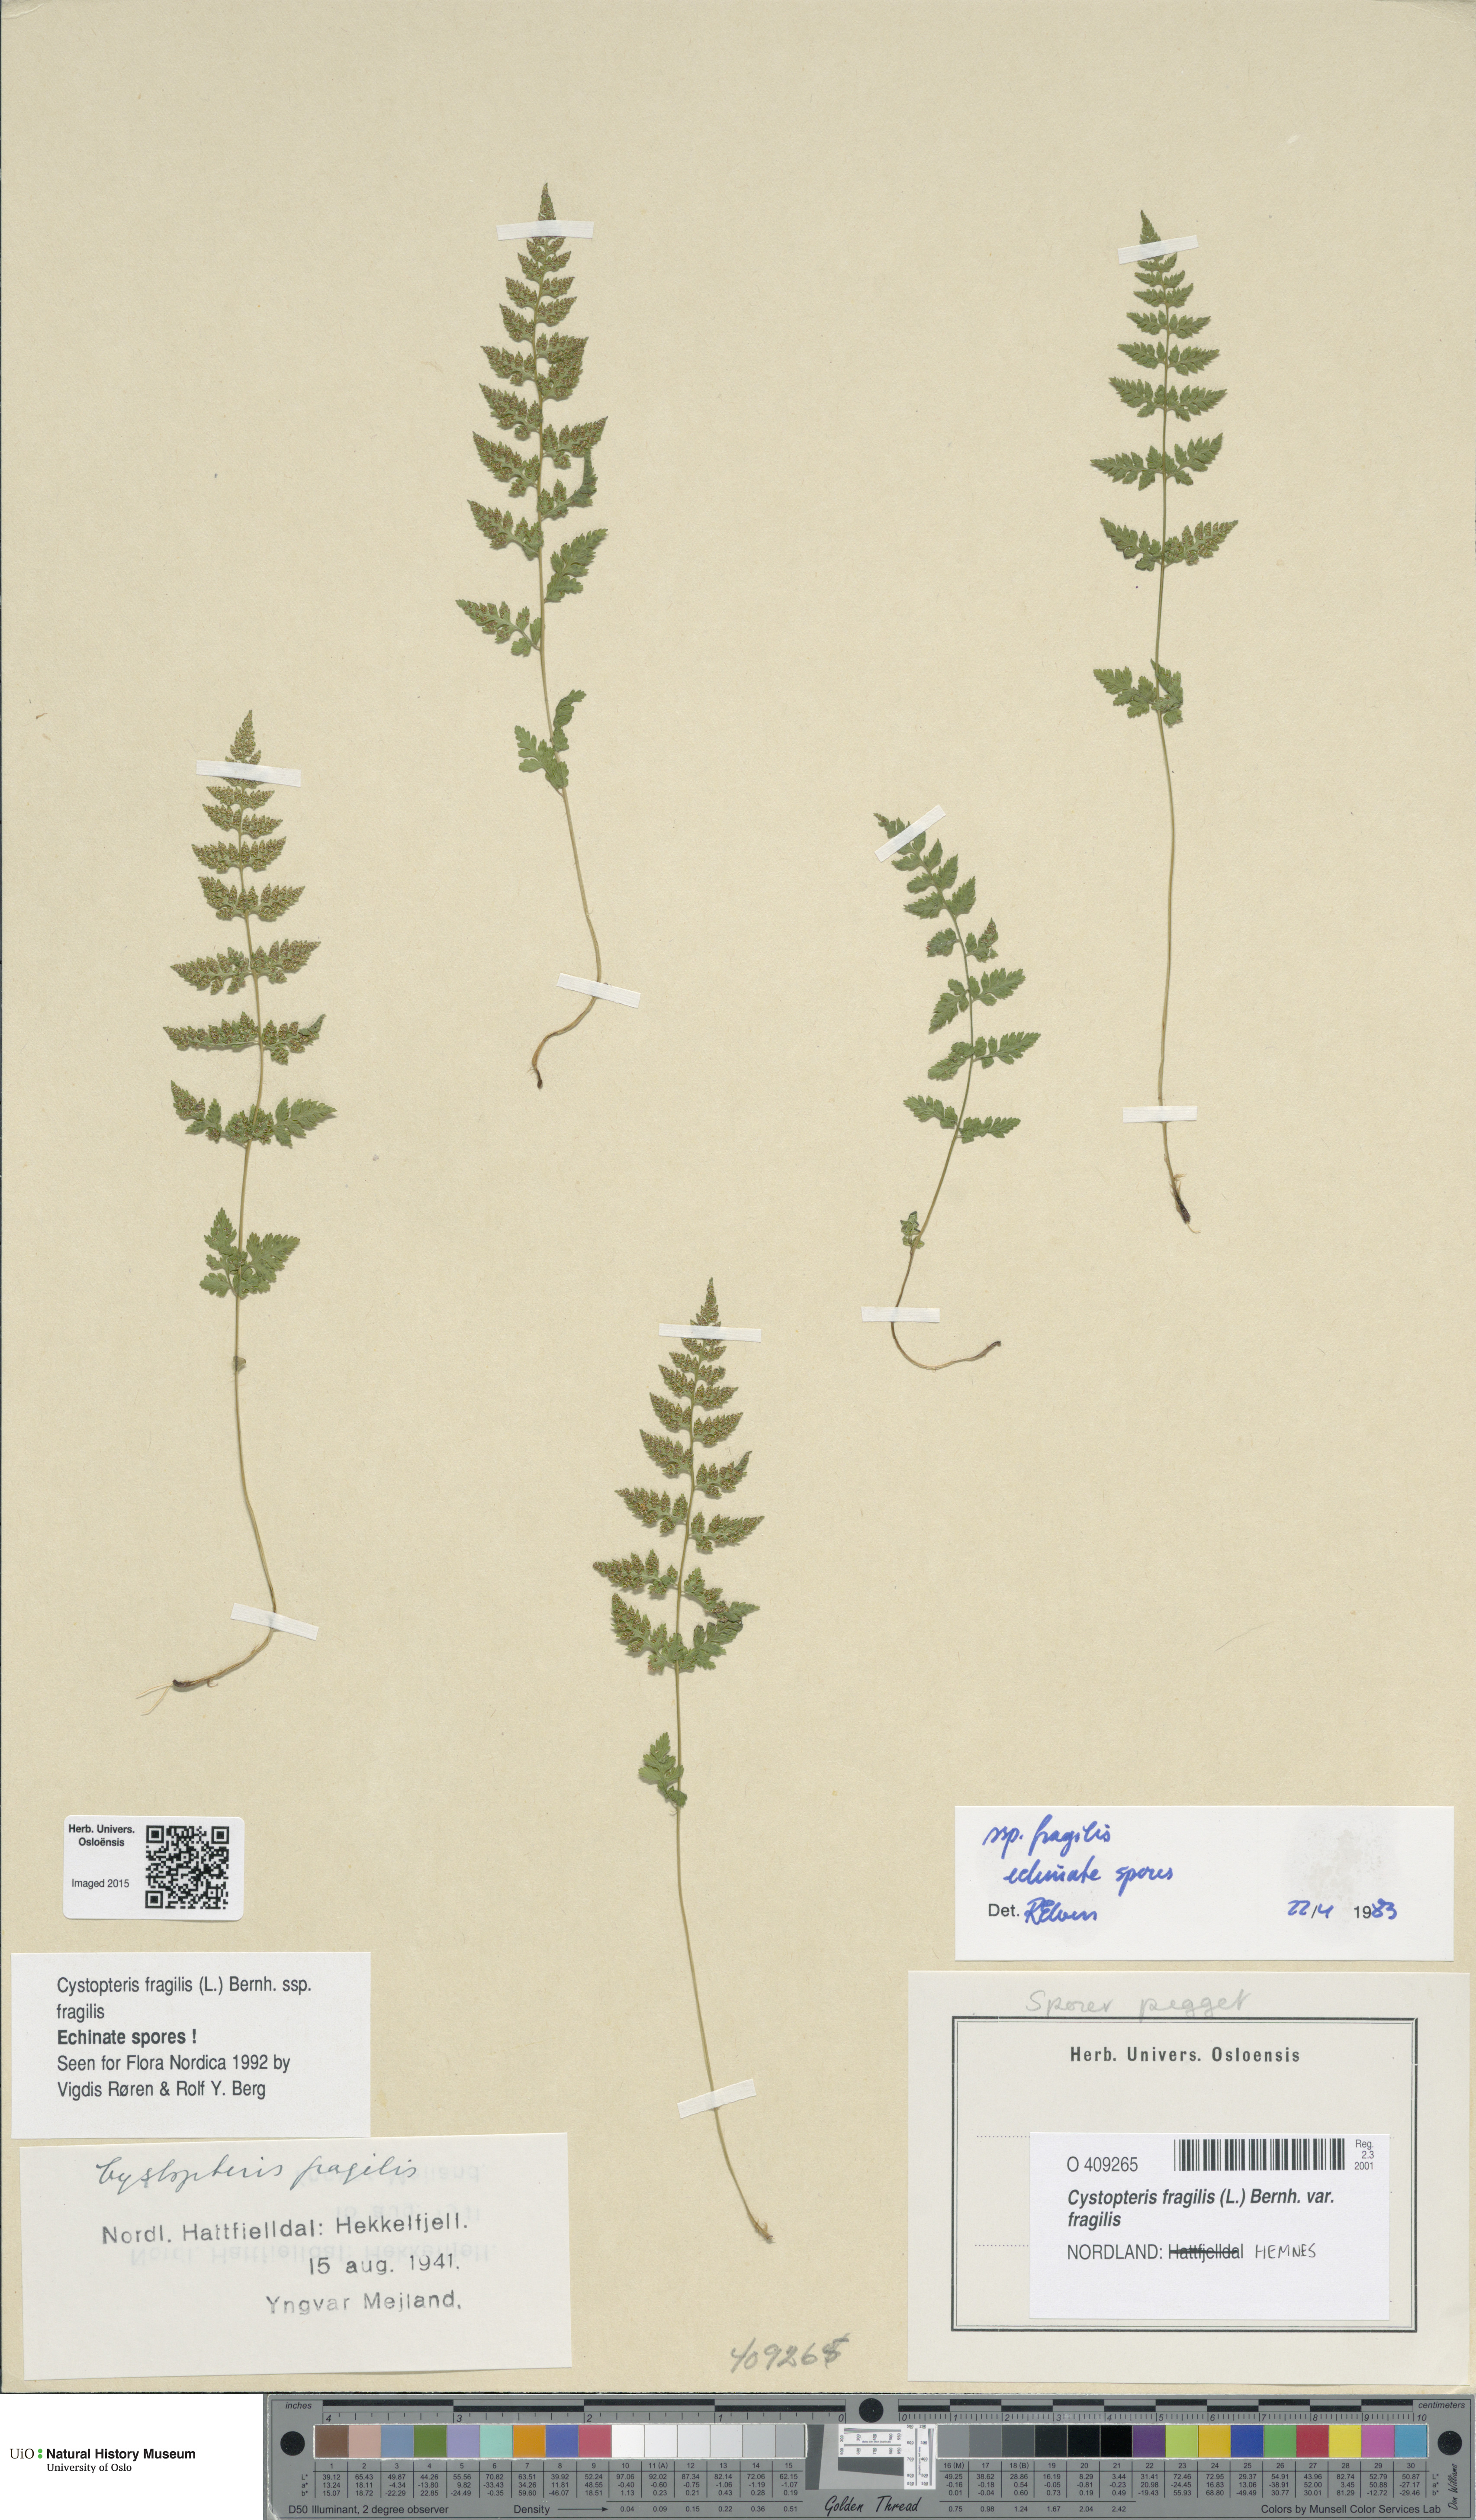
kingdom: Plantae
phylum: Tracheophyta
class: Polypodiopsida
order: Polypodiales
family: Cystopteridaceae
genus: Cystopteris
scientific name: Cystopteris fragilis
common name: Brittle bladder fern
